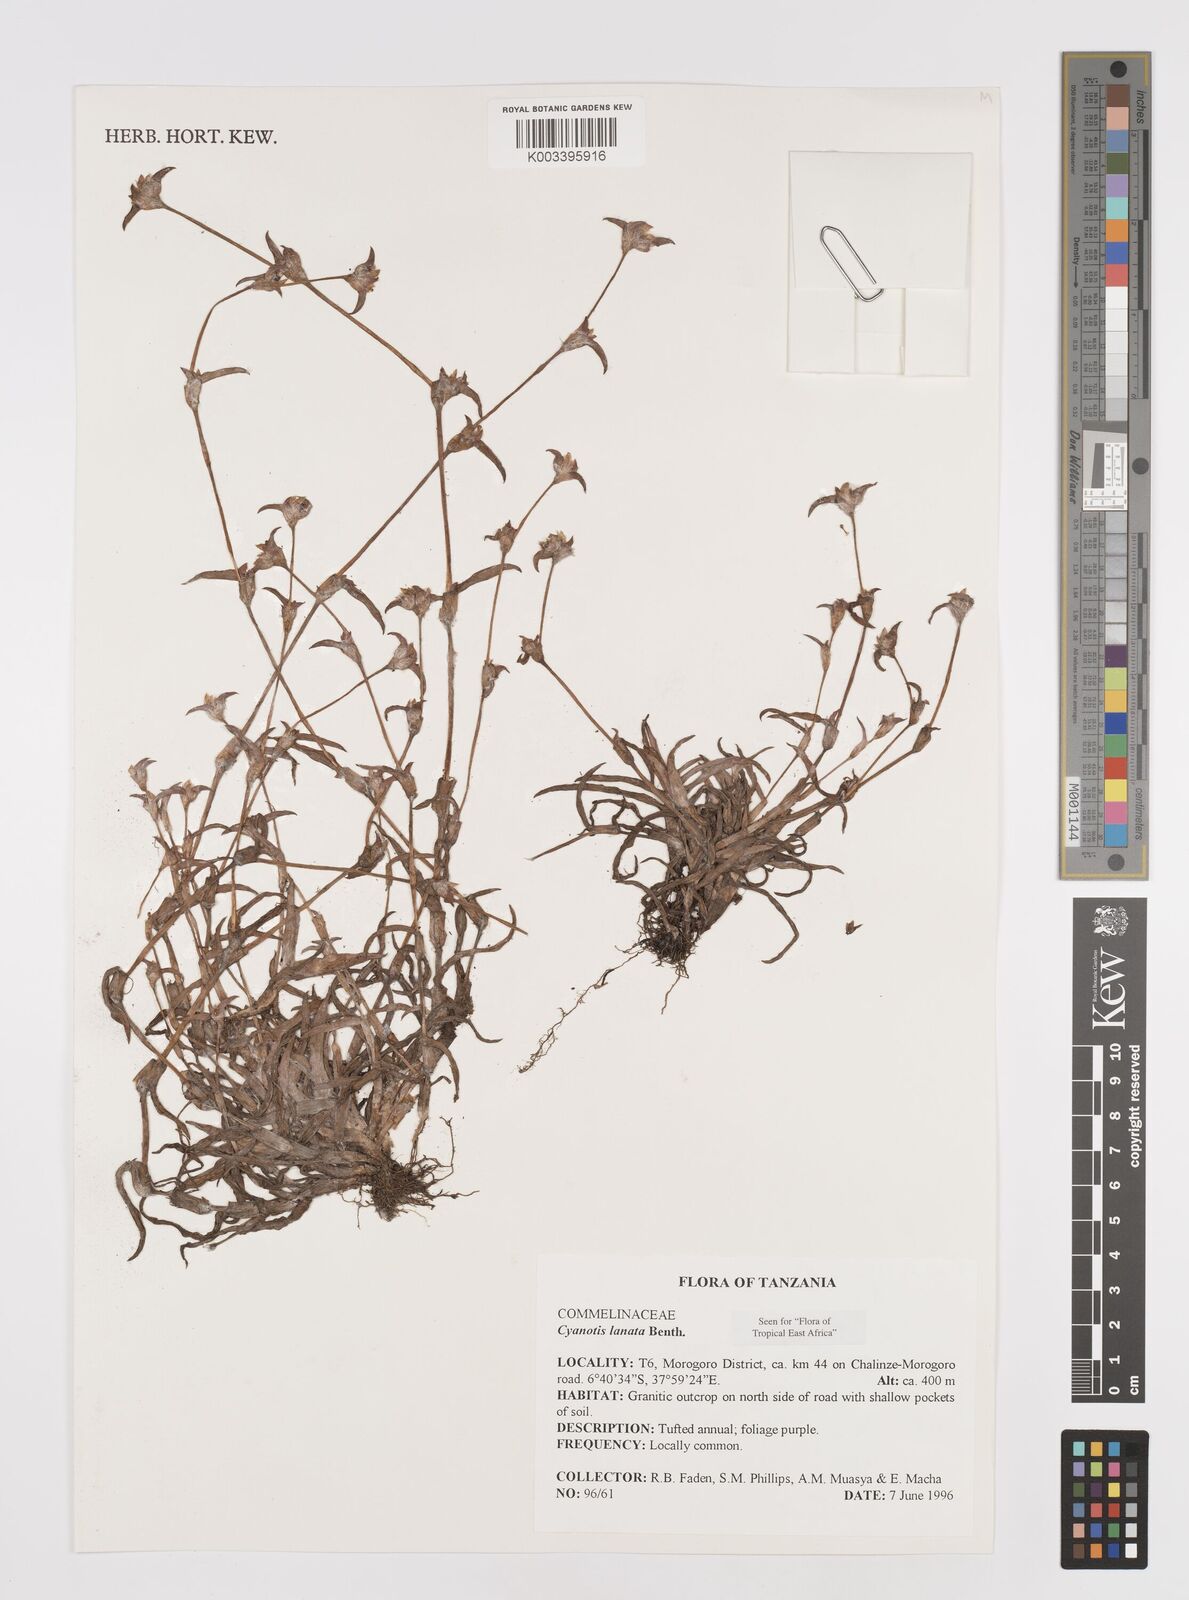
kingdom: Plantae
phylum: Tracheophyta
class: Liliopsida
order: Commelinales
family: Commelinaceae
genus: Cyanotis
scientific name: Cyanotis lanata
